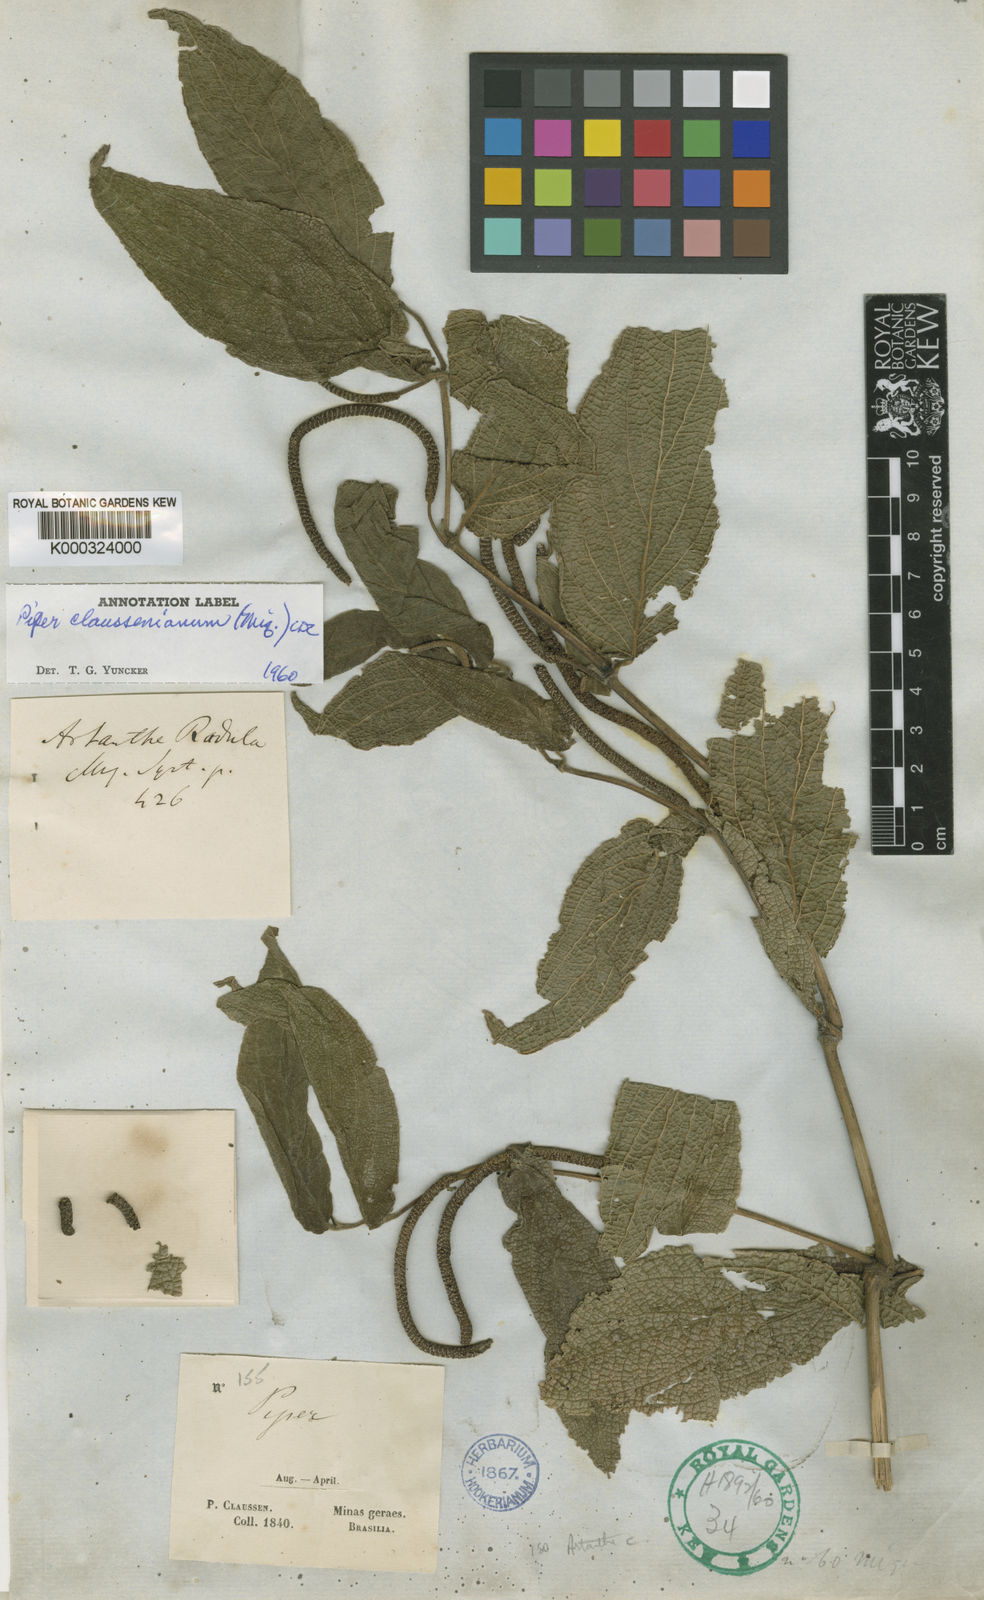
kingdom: Plantae
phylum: Tracheophyta
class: Magnoliopsida
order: Piperales
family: Piperaceae
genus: Piper
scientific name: Piper claussenianum
